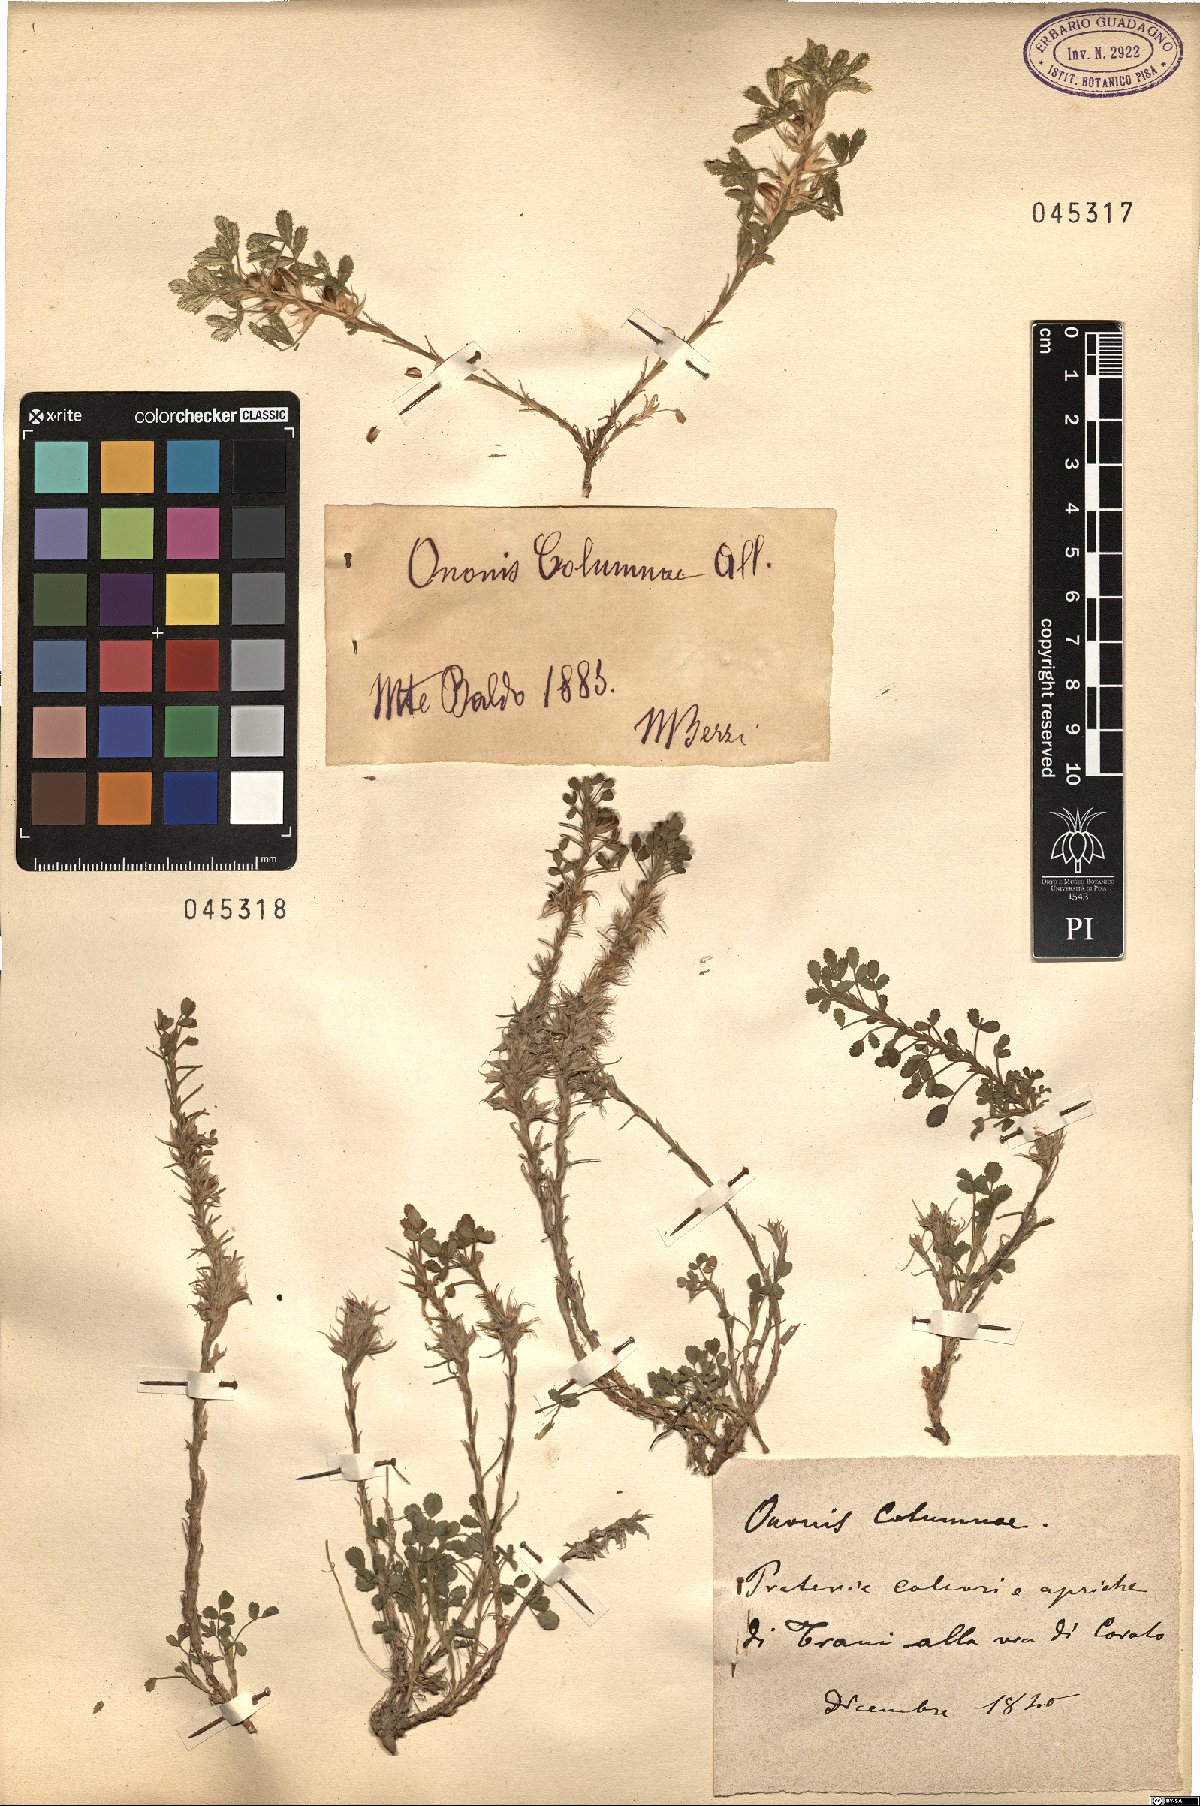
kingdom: Plantae
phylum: Tracheophyta
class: Magnoliopsida
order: Fabales
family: Fabaceae
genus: Ononis
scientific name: Ononis pusilla
